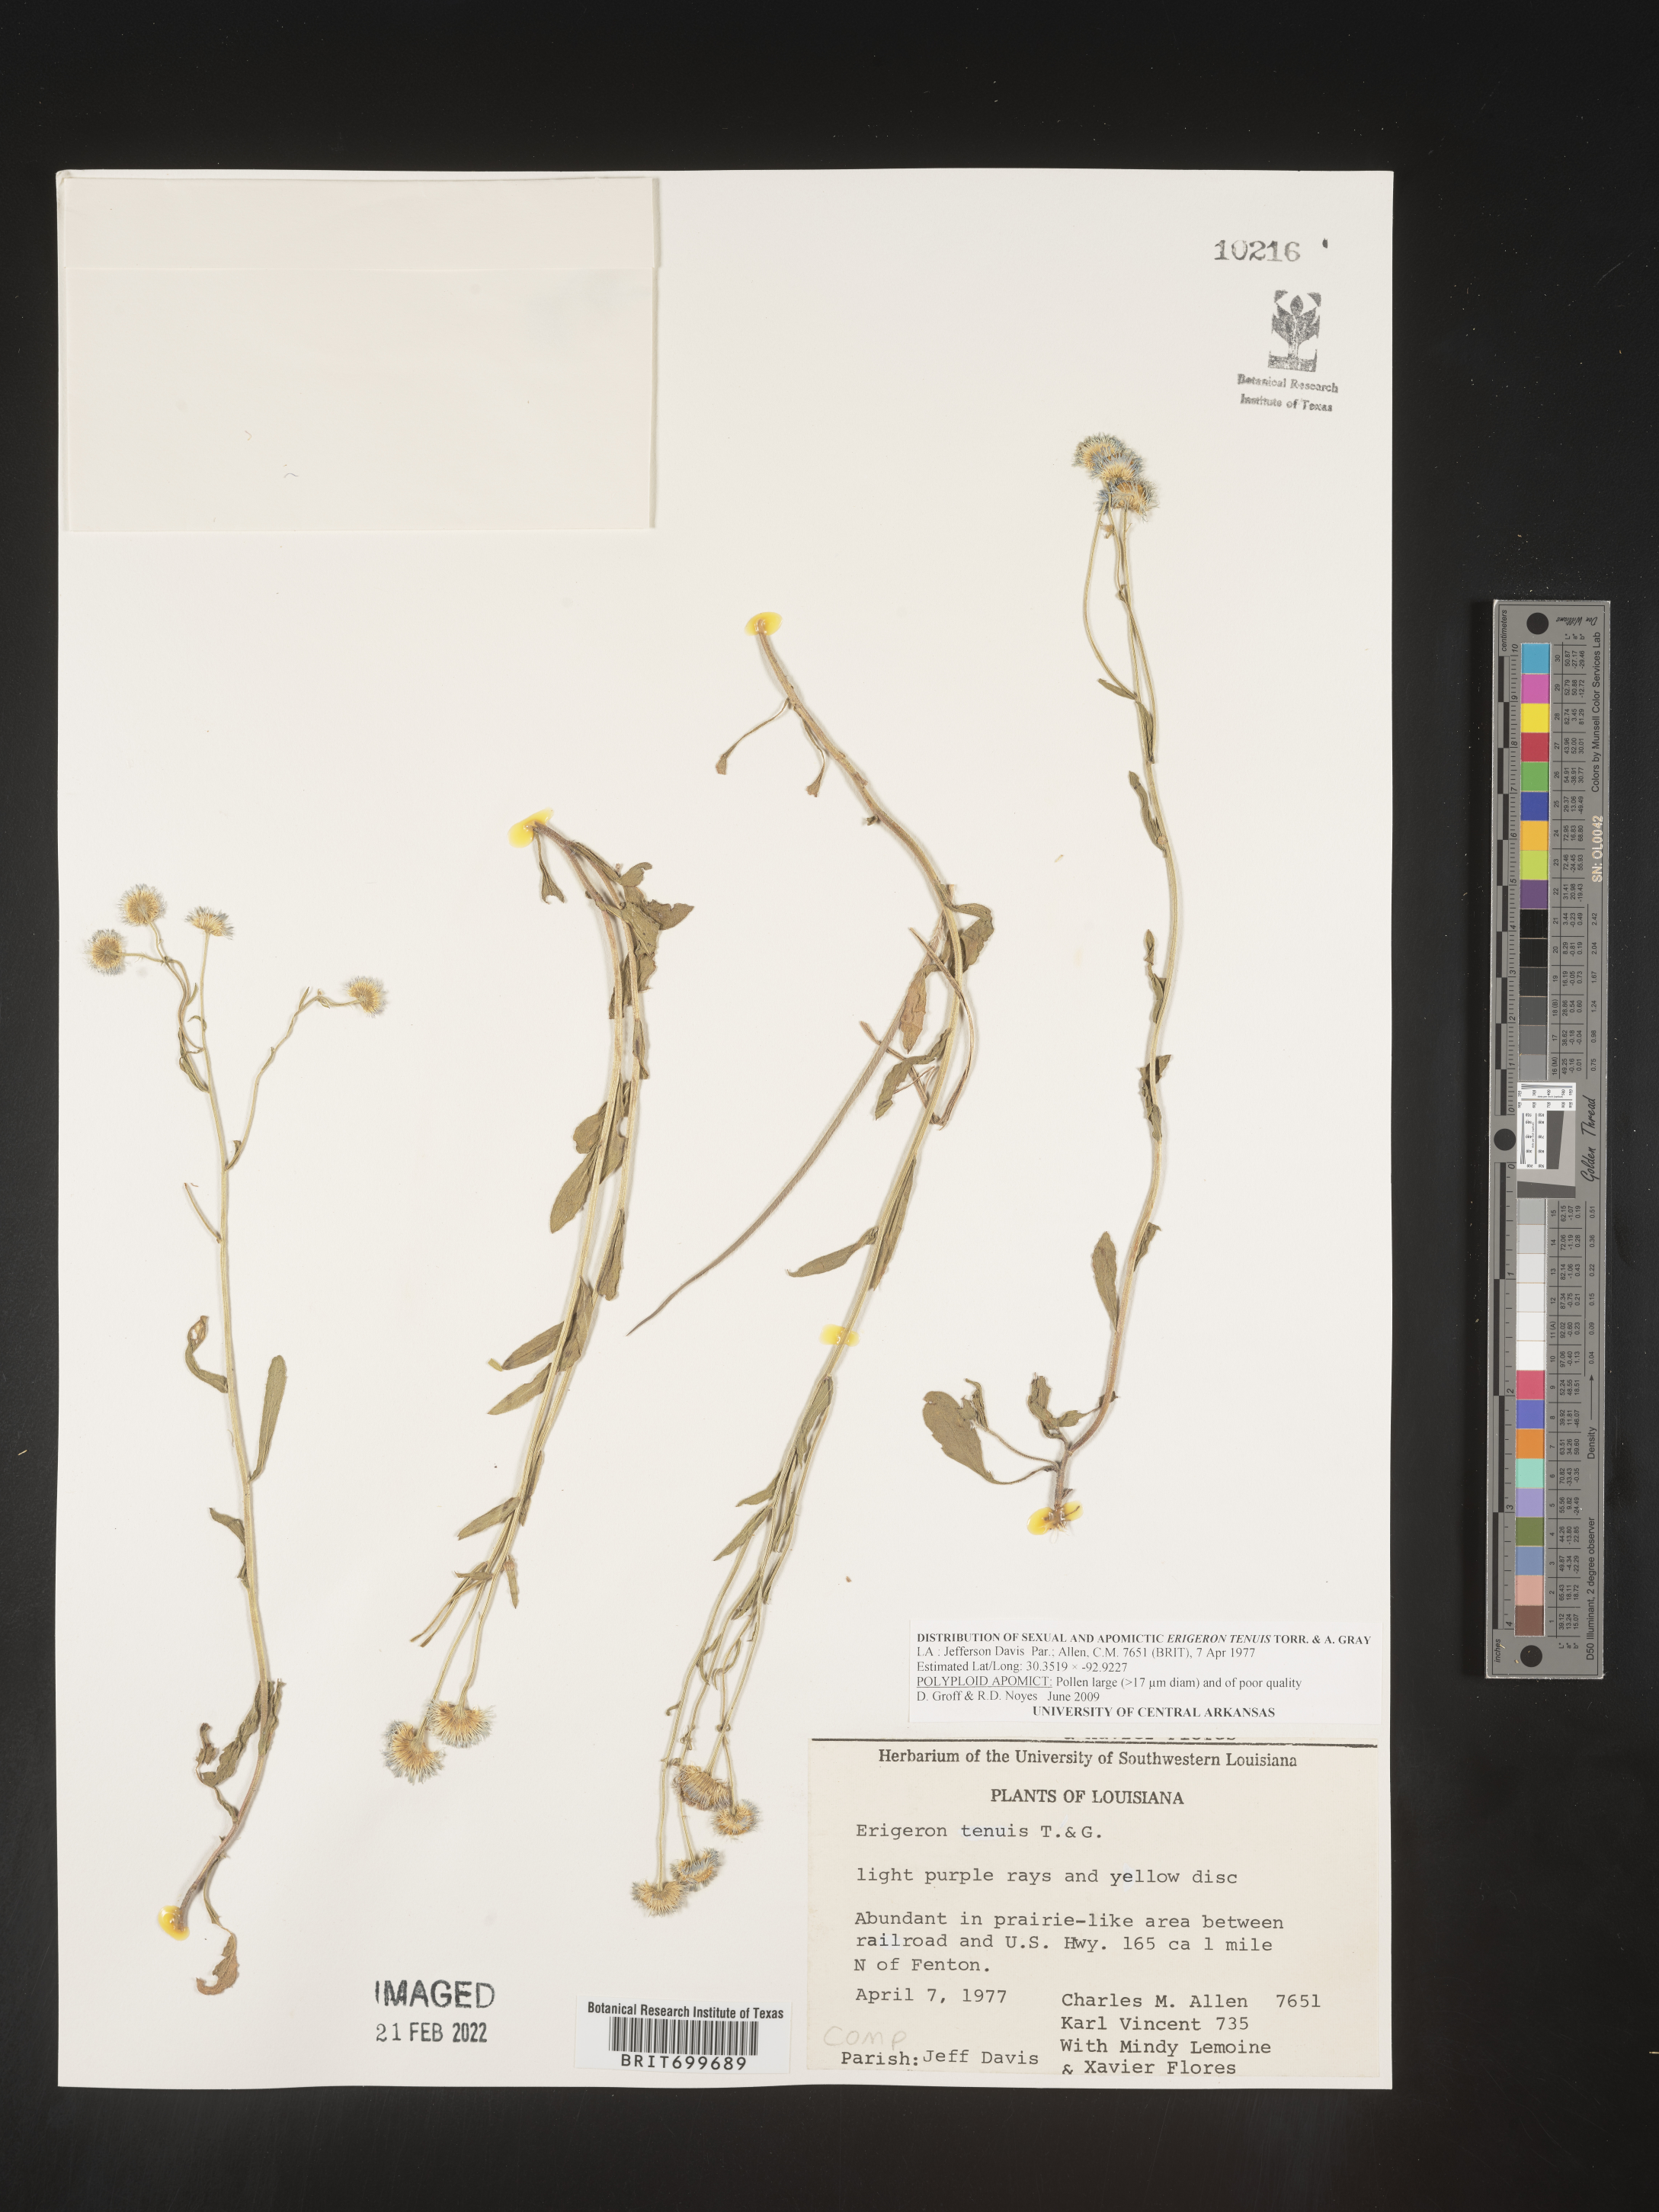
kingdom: Plantae
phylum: Tracheophyta
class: Magnoliopsida
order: Asterales
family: Asteraceae
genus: Erigeron
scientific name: Erigeron tenuis
